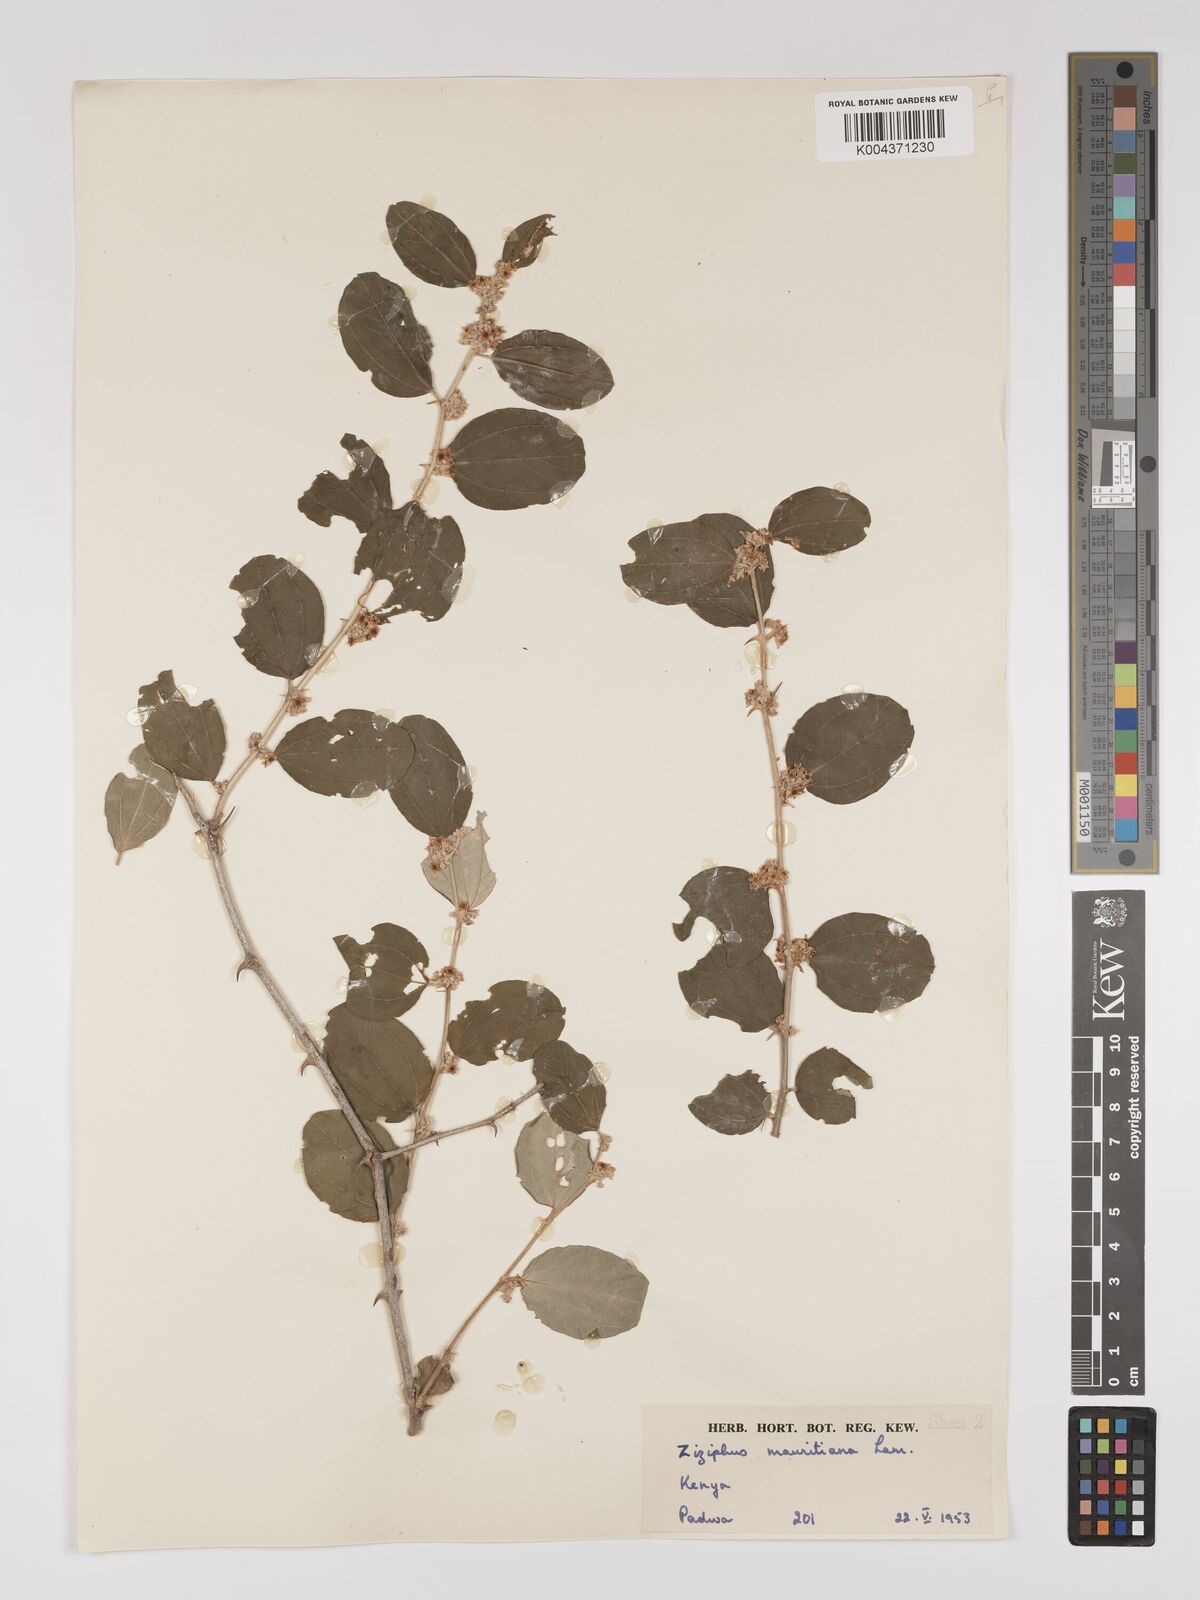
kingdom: Plantae
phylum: Tracheophyta
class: Magnoliopsida
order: Rosales
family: Rhamnaceae
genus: Ziziphus
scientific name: Ziziphus mauritiana
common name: Indian jujube
